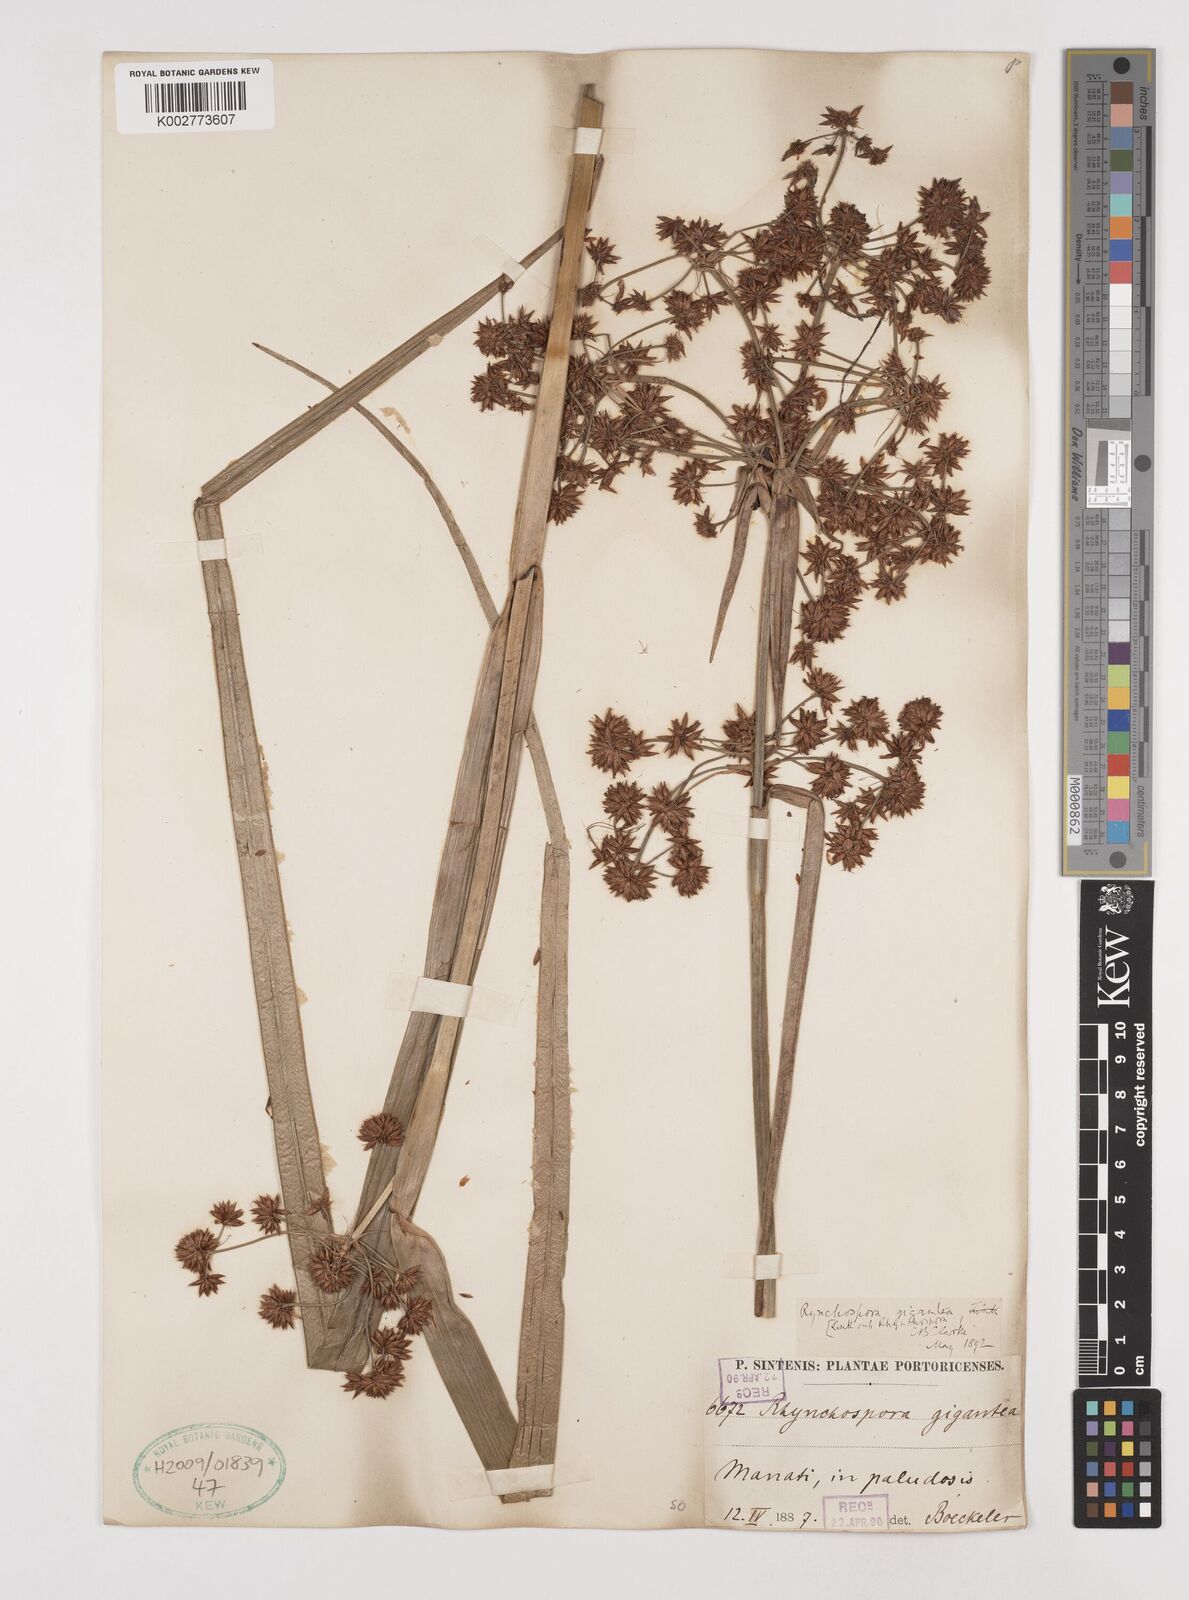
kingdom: Plantae
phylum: Tracheophyta
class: Liliopsida
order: Poales
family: Cyperaceae
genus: Rhynchospora
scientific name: Rhynchospora gigantea
